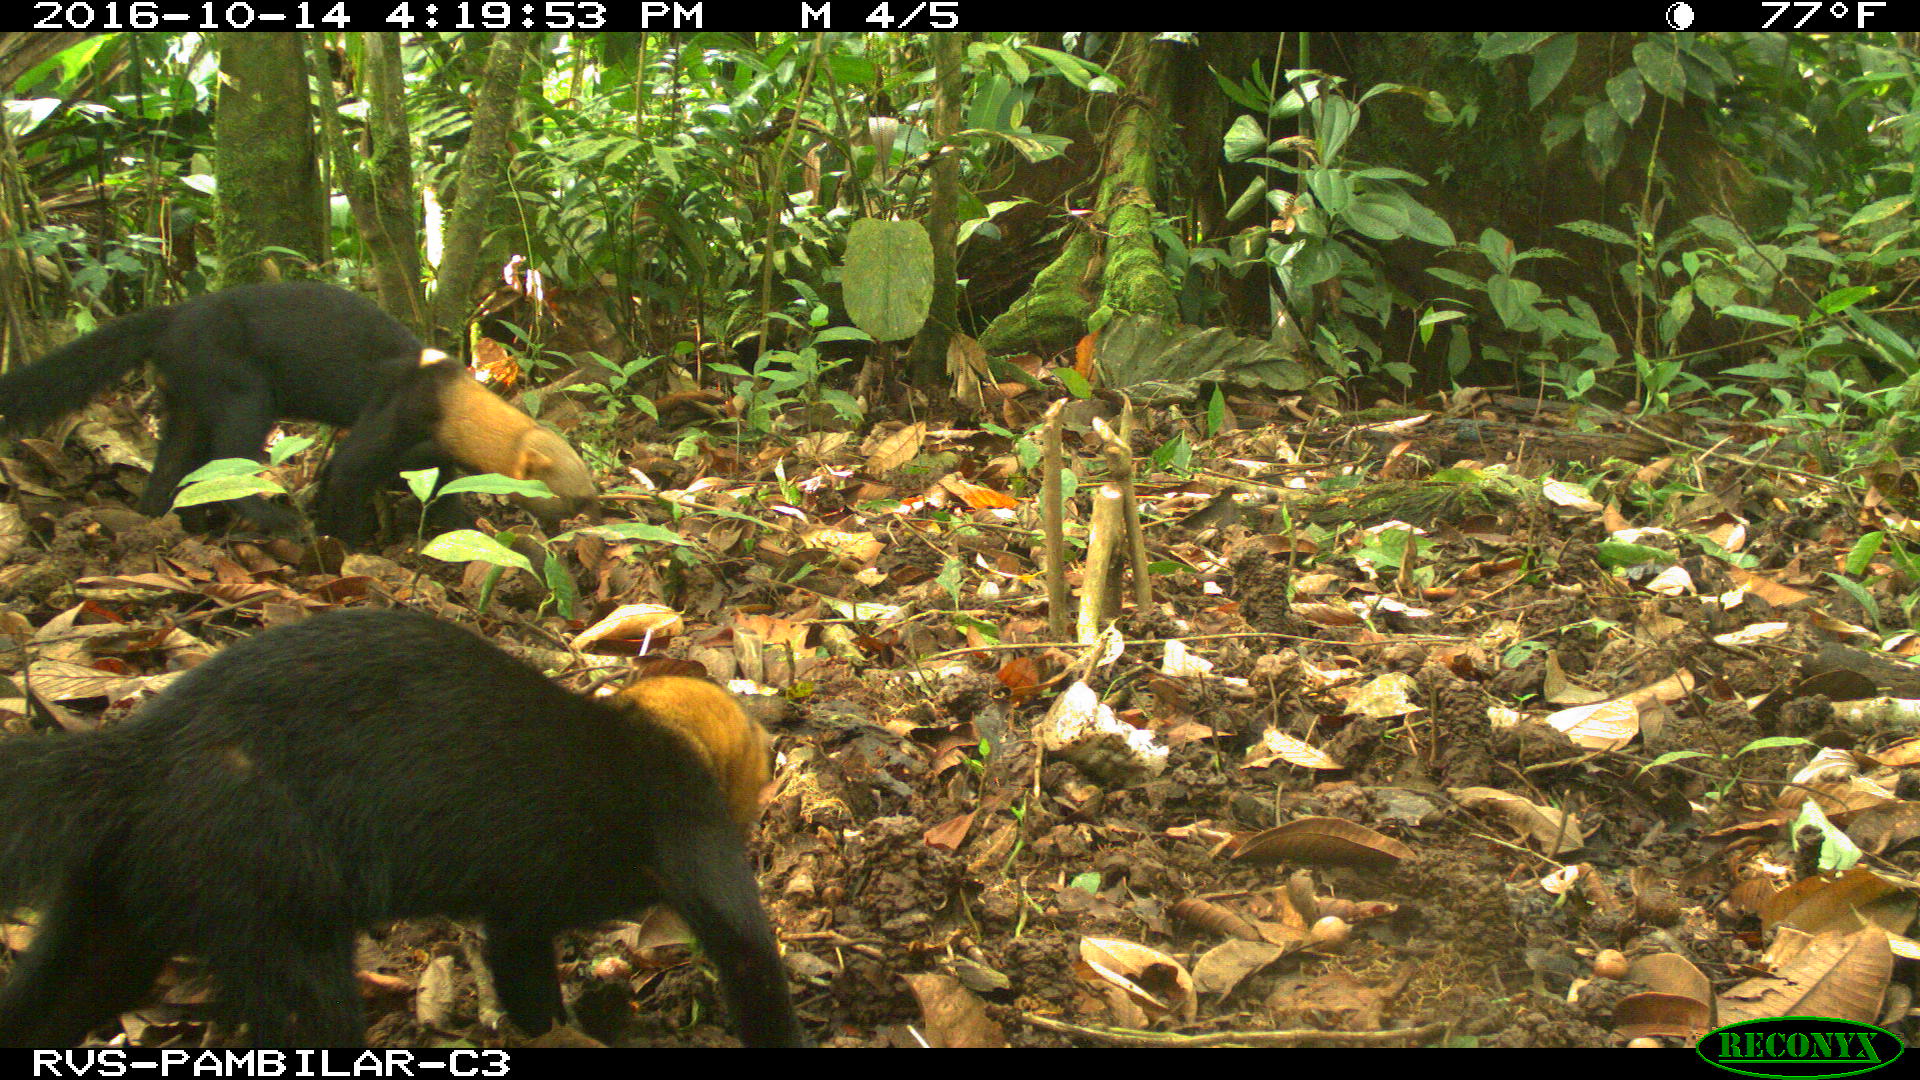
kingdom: Animalia
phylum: Chordata
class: Mammalia
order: Carnivora
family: Mustelidae
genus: Eira
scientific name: Eira barbara
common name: Tayra
